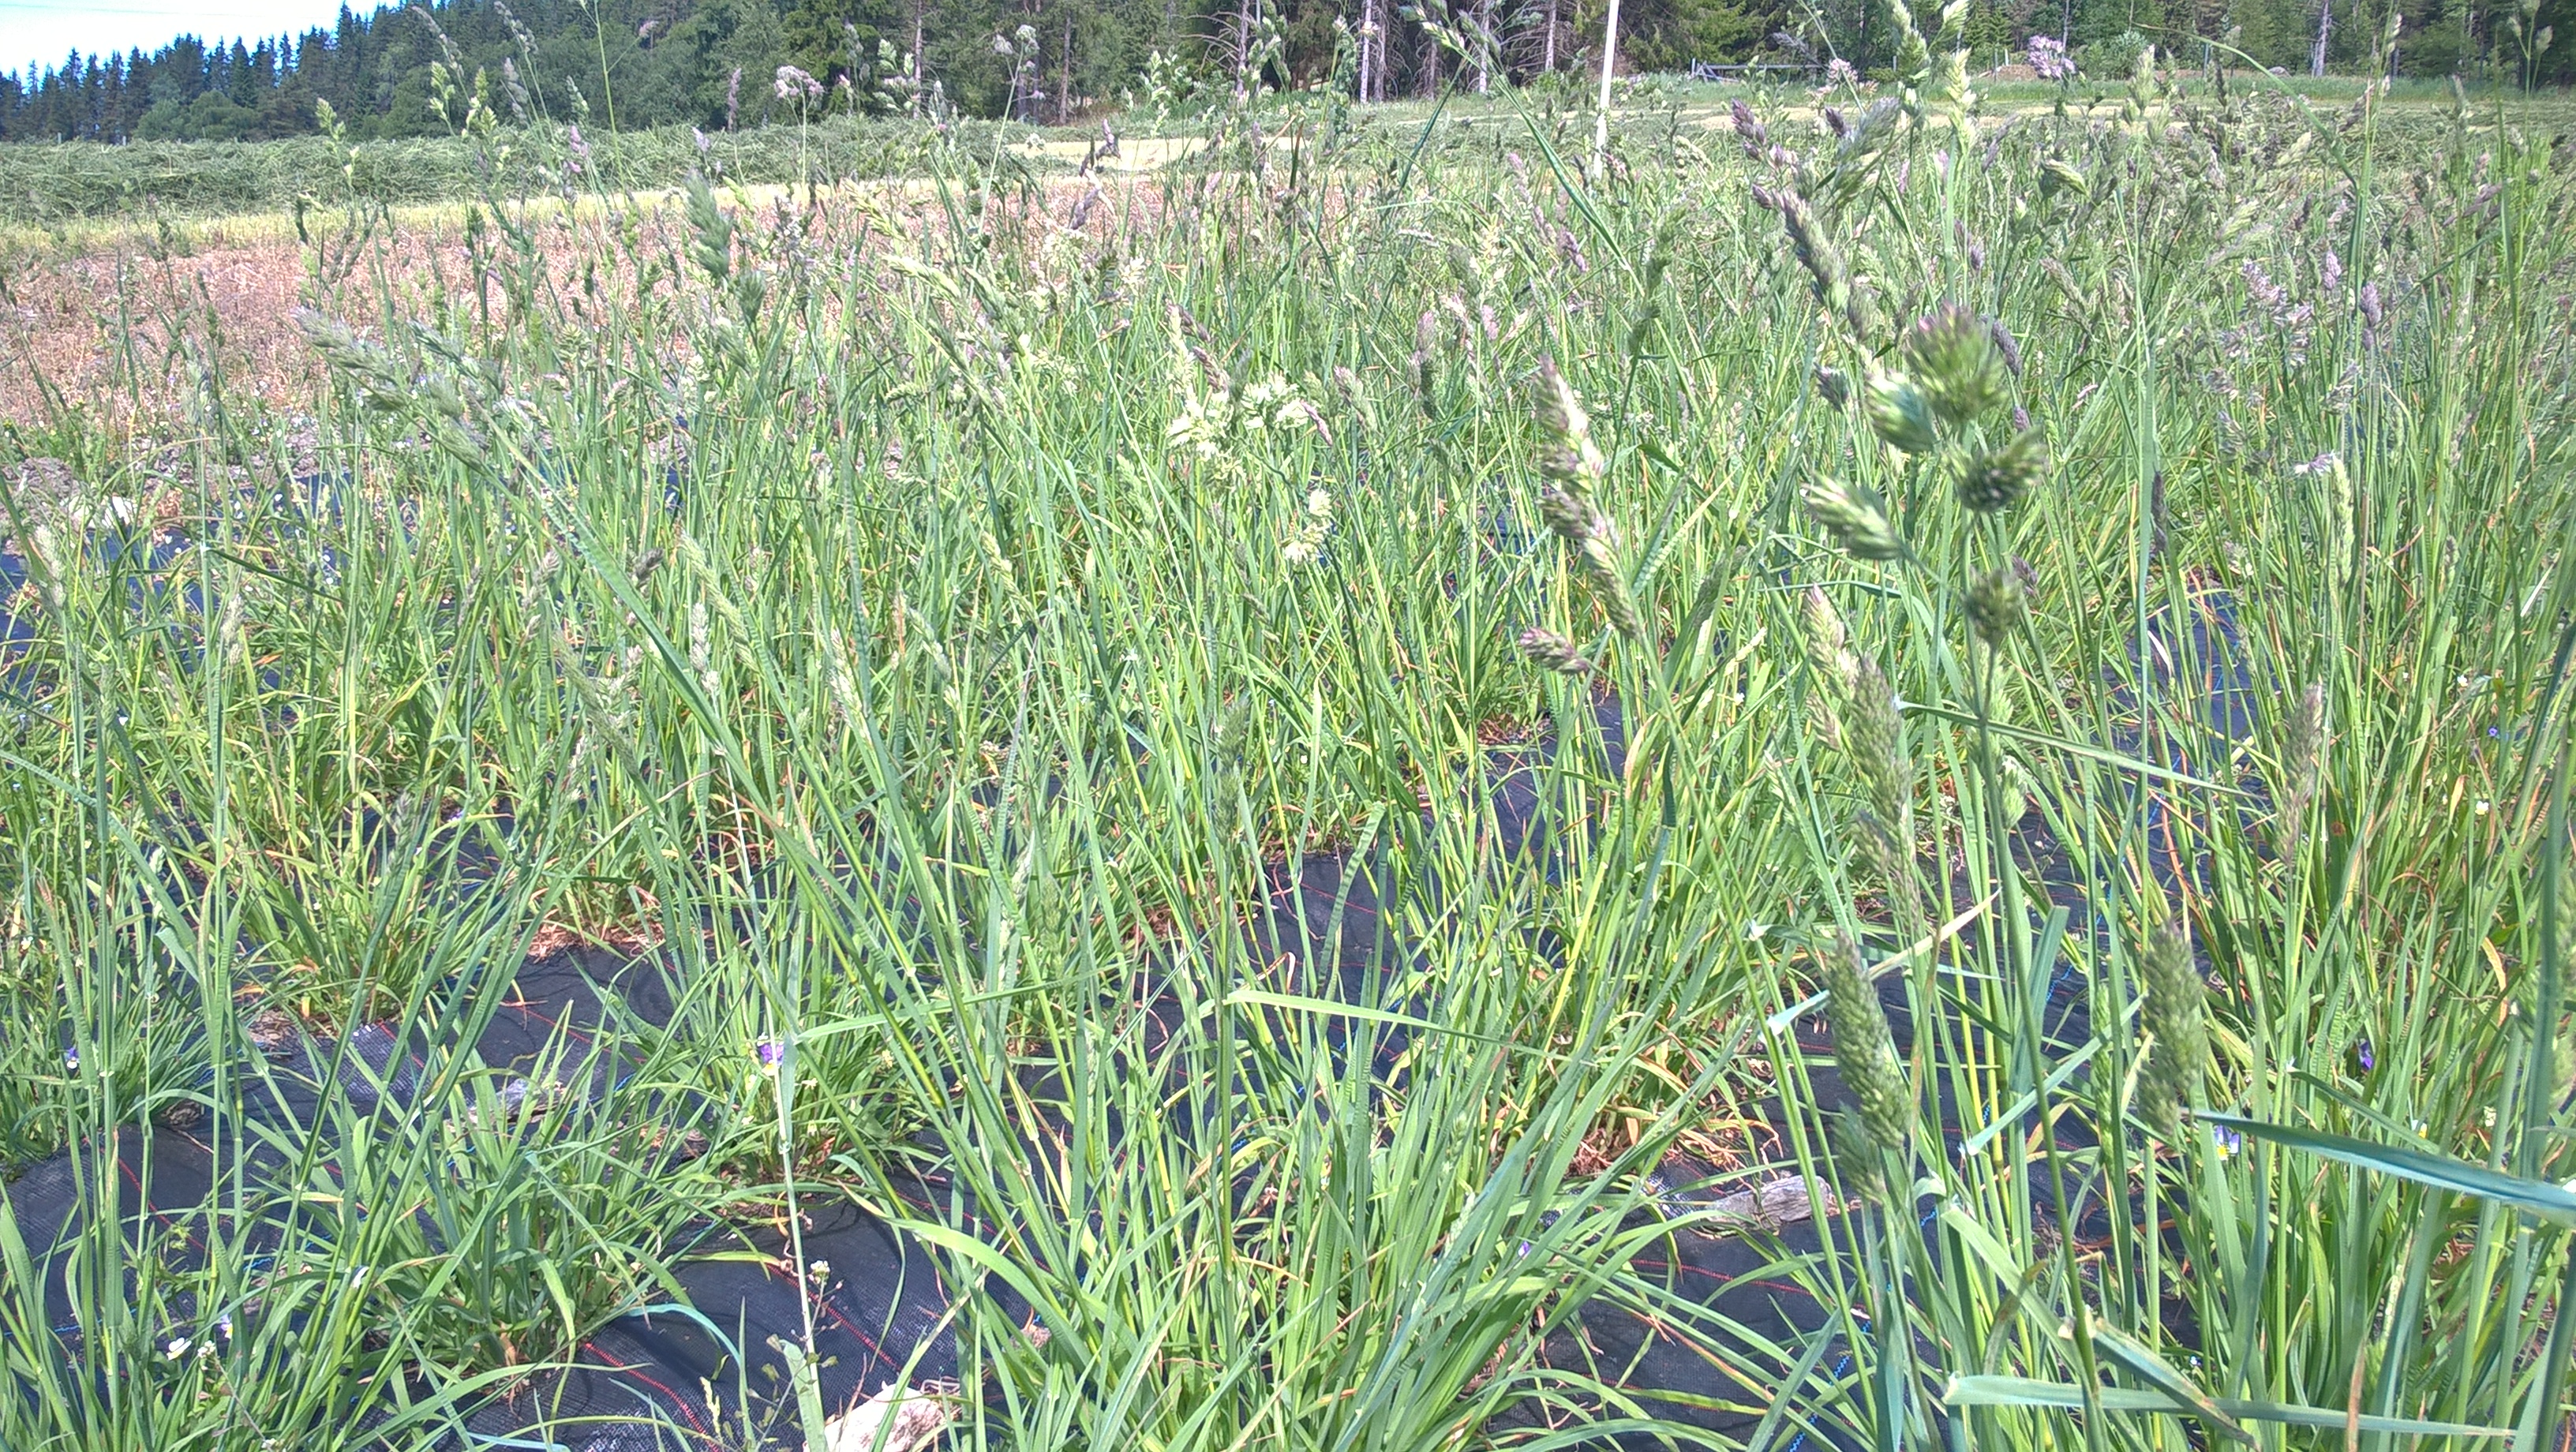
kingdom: Plantae
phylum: Tracheophyta
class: Liliopsida
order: Poales
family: Poaceae
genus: Dactylis
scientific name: Dactylis glomerata
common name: Orchardgrass
